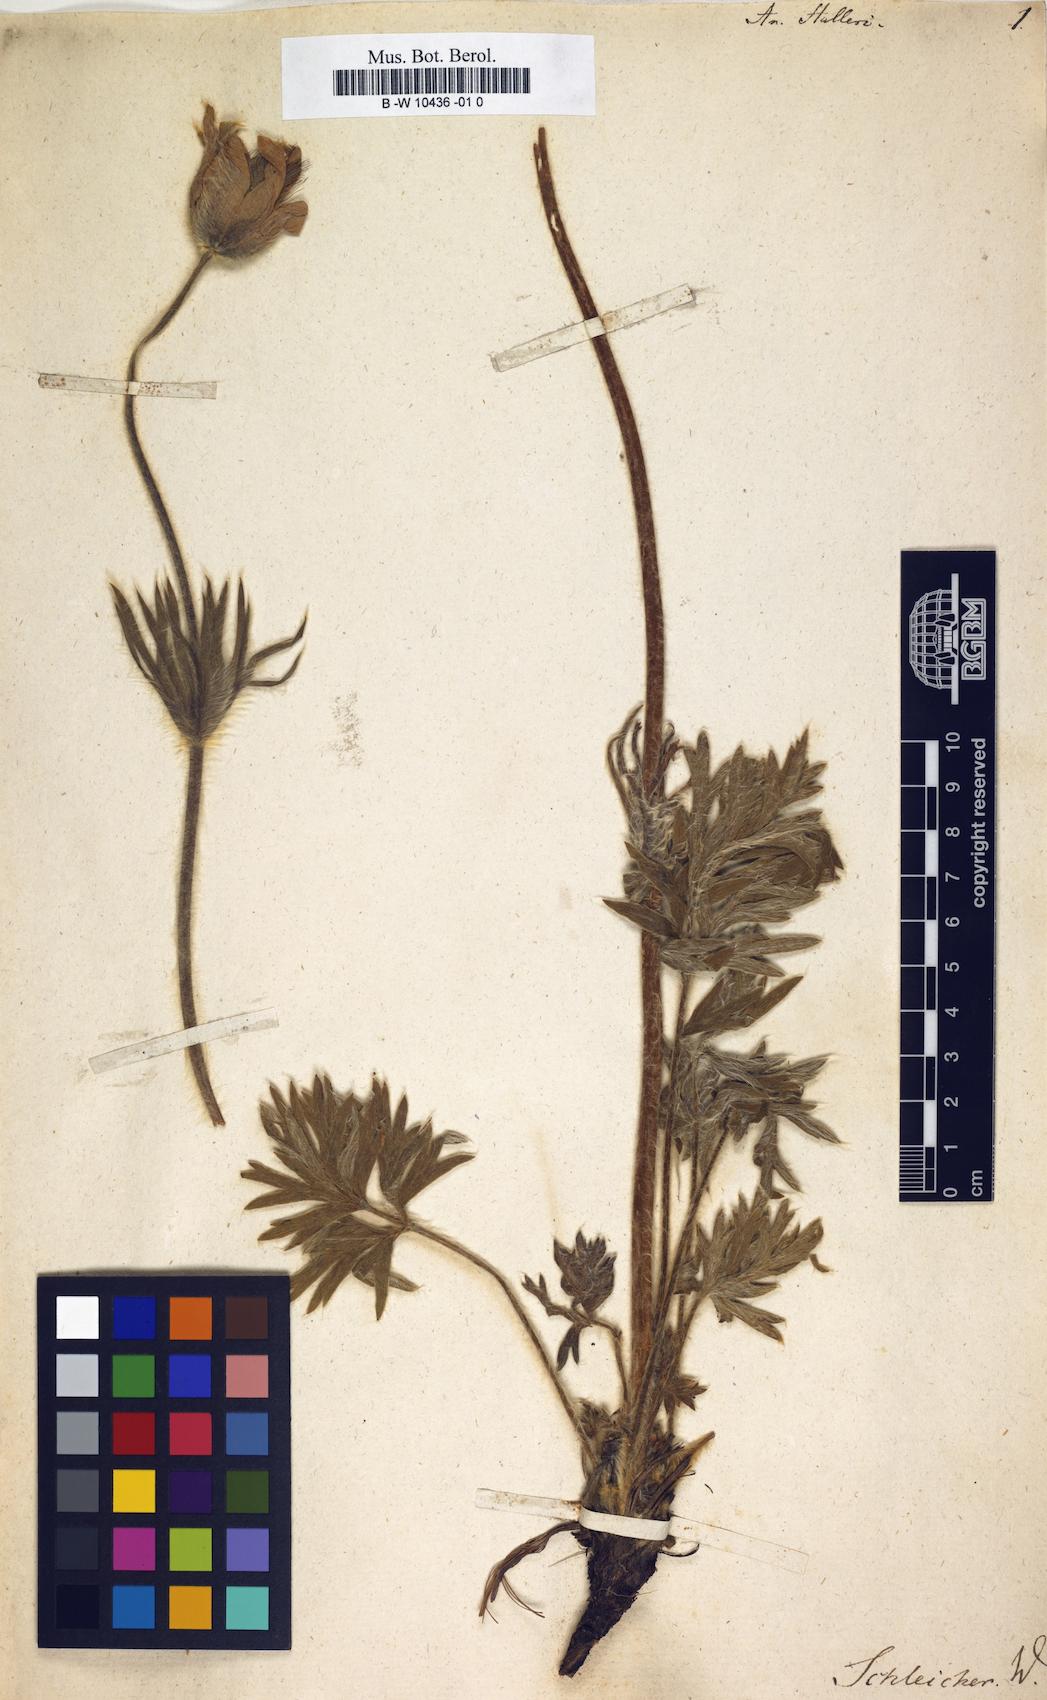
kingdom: Plantae
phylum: Tracheophyta
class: Magnoliopsida
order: Ranunculales
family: Ranunculaceae
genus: Pulsatilla
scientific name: Pulsatilla halleri
